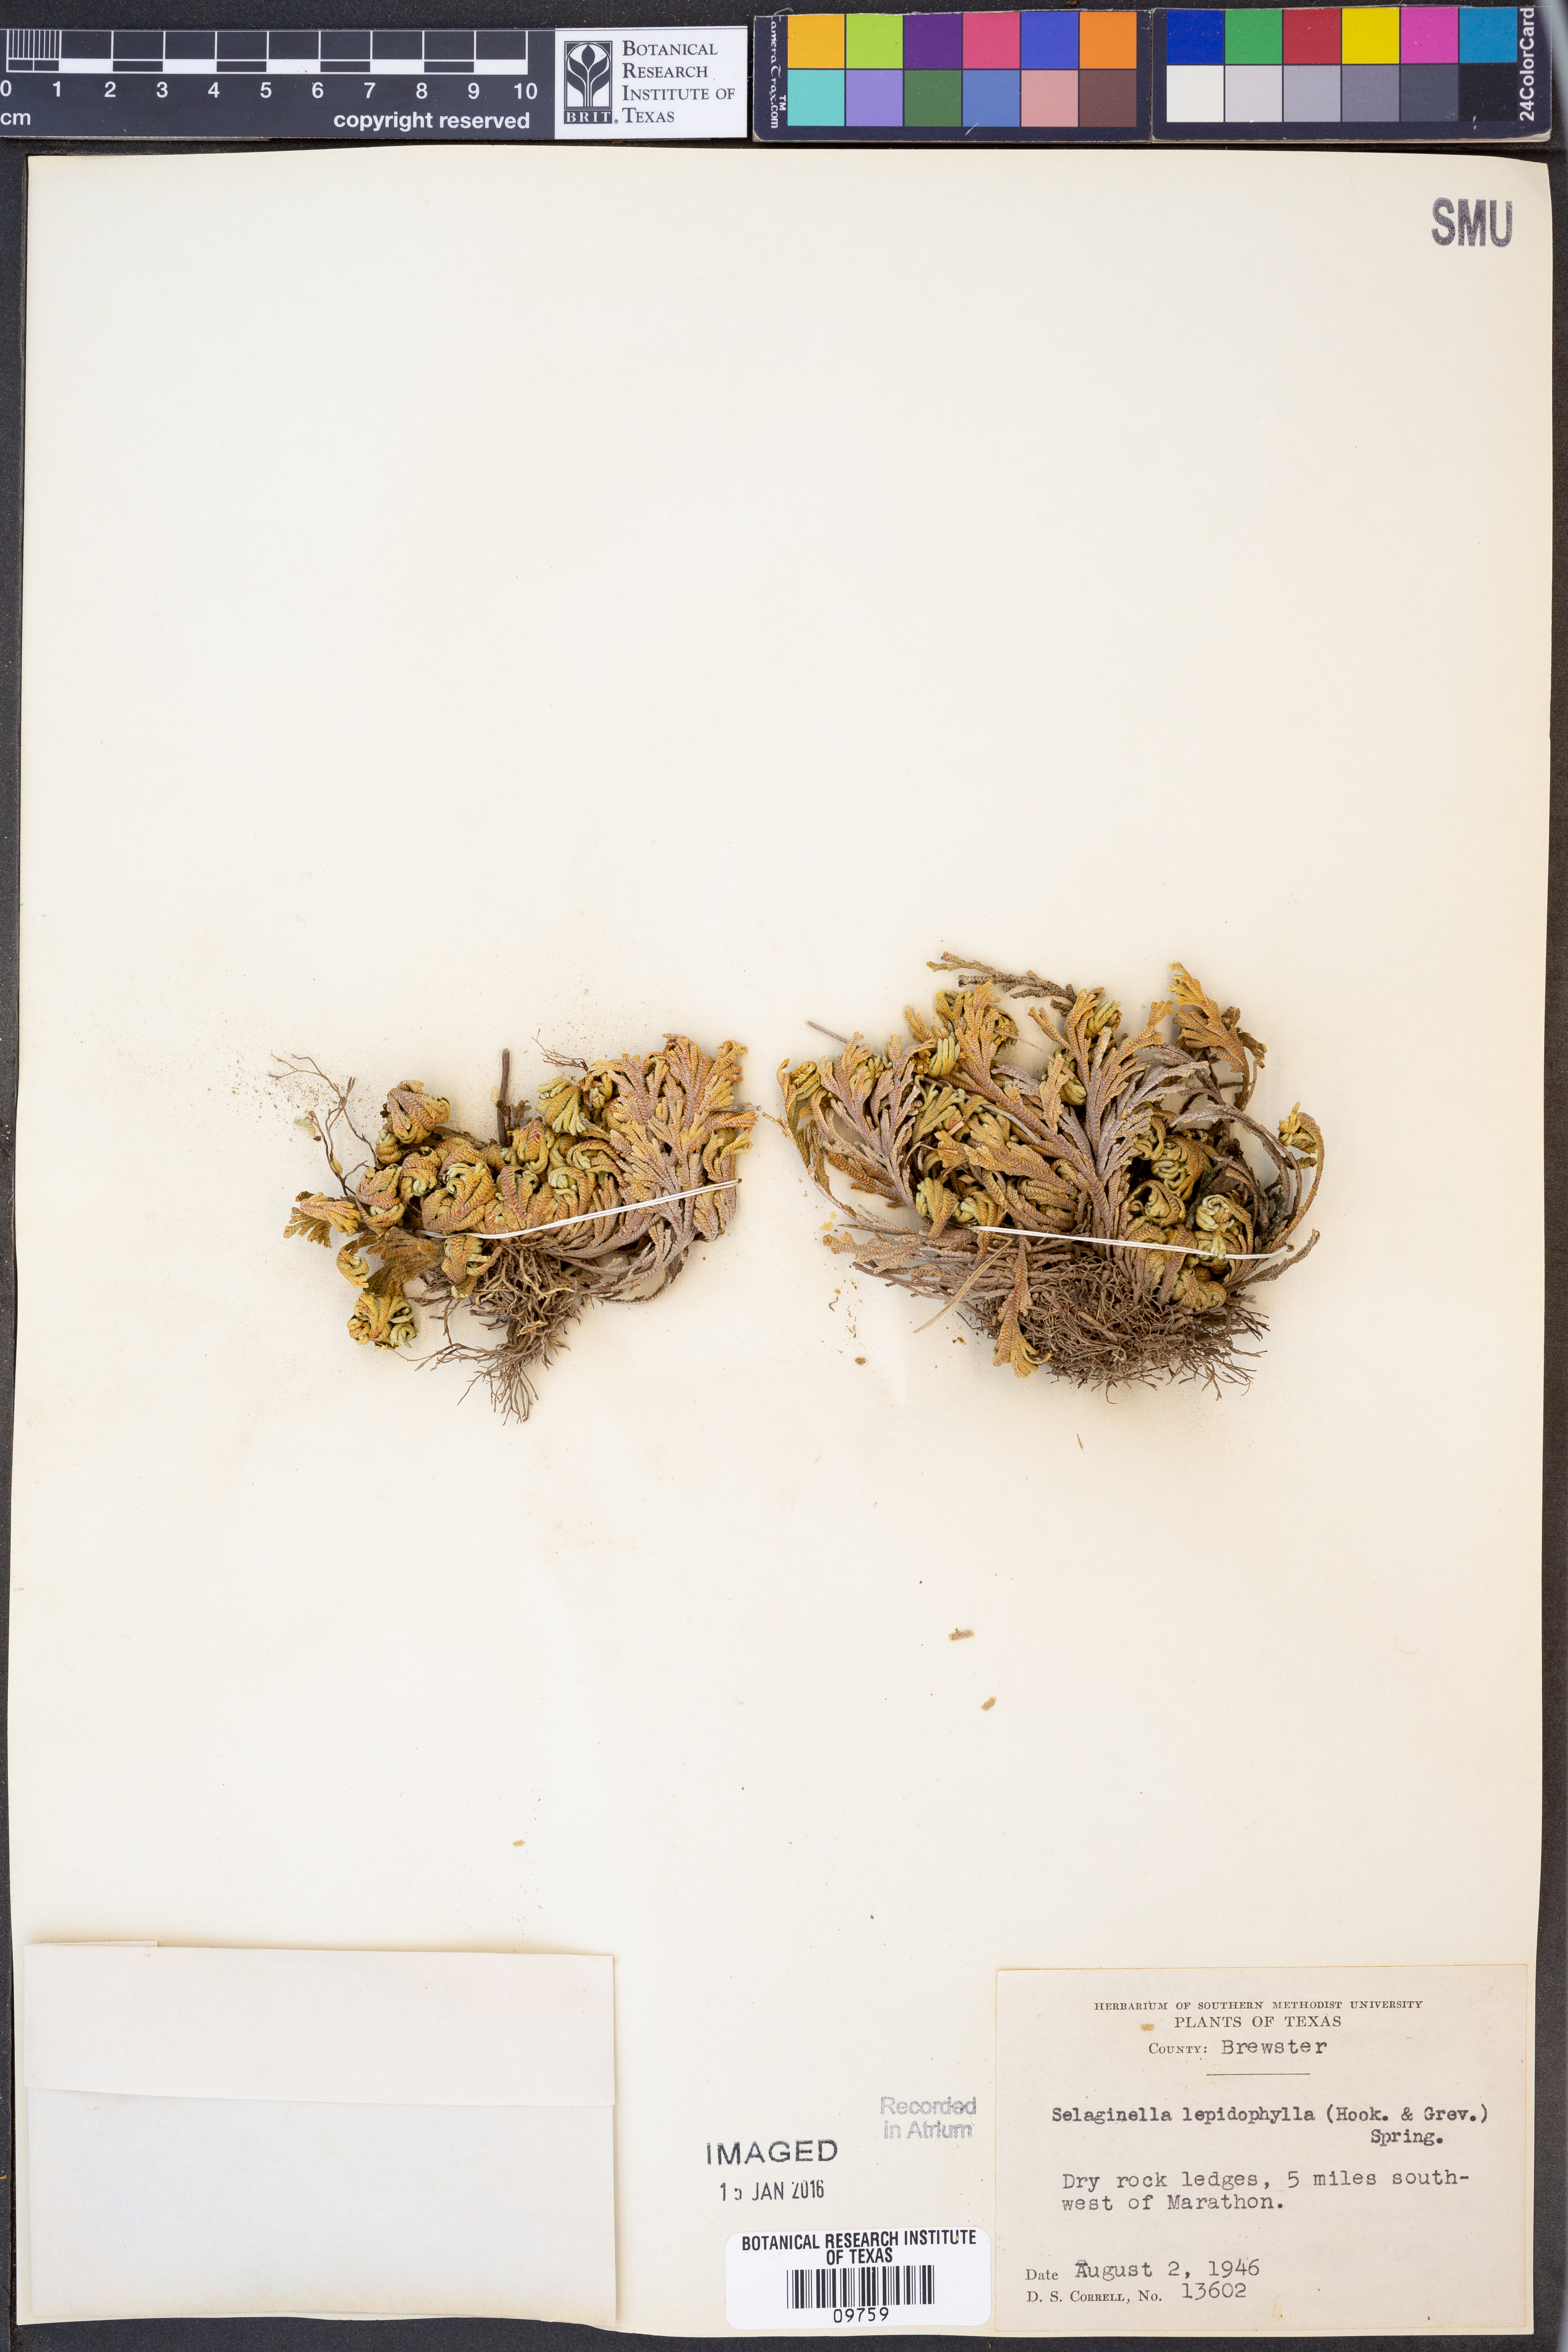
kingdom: Plantae
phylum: Tracheophyta
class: Lycopodiopsida
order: Selaginellales
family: Selaginellaceae
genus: Selaginella
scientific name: Selaginella lepidophylla
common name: Rose-of-jericho
